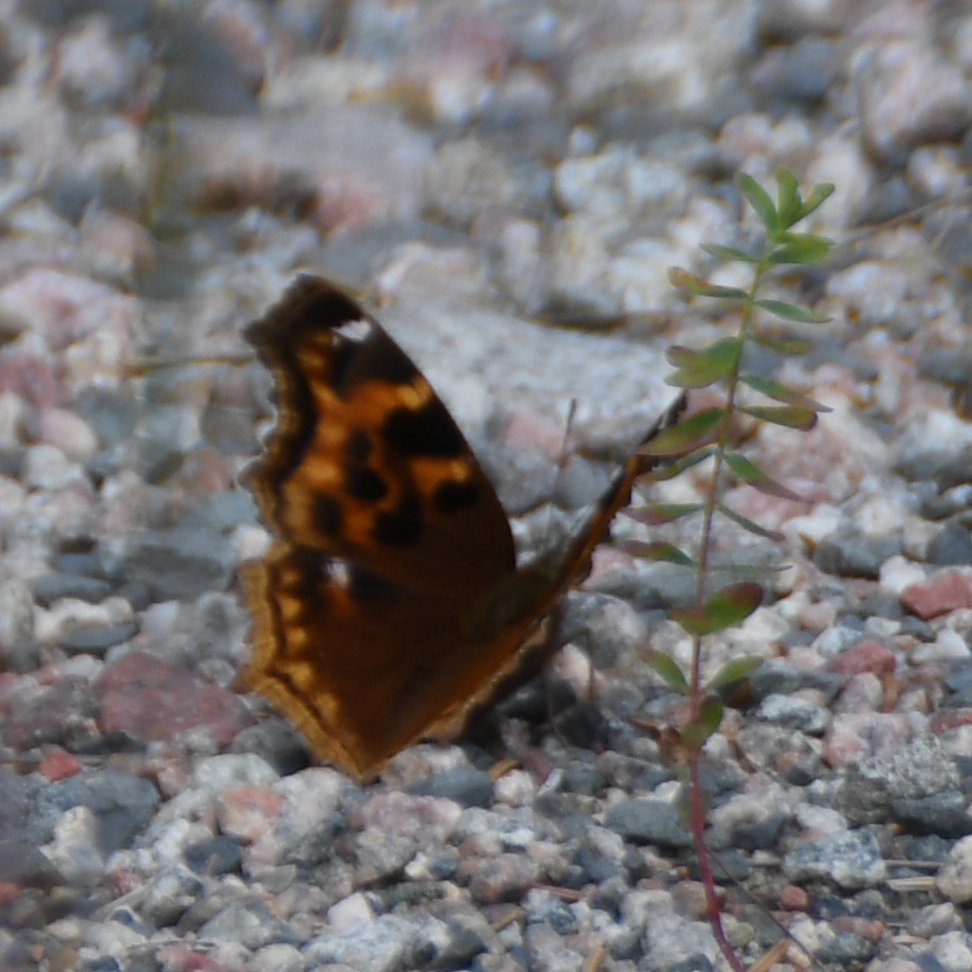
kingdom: Animalia
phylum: Arthropoda
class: Insecta
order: Lepidoptera
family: Nymphalidae
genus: Polygonia
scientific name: Polygonia vaualbum
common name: Compton Tortoiseshell
